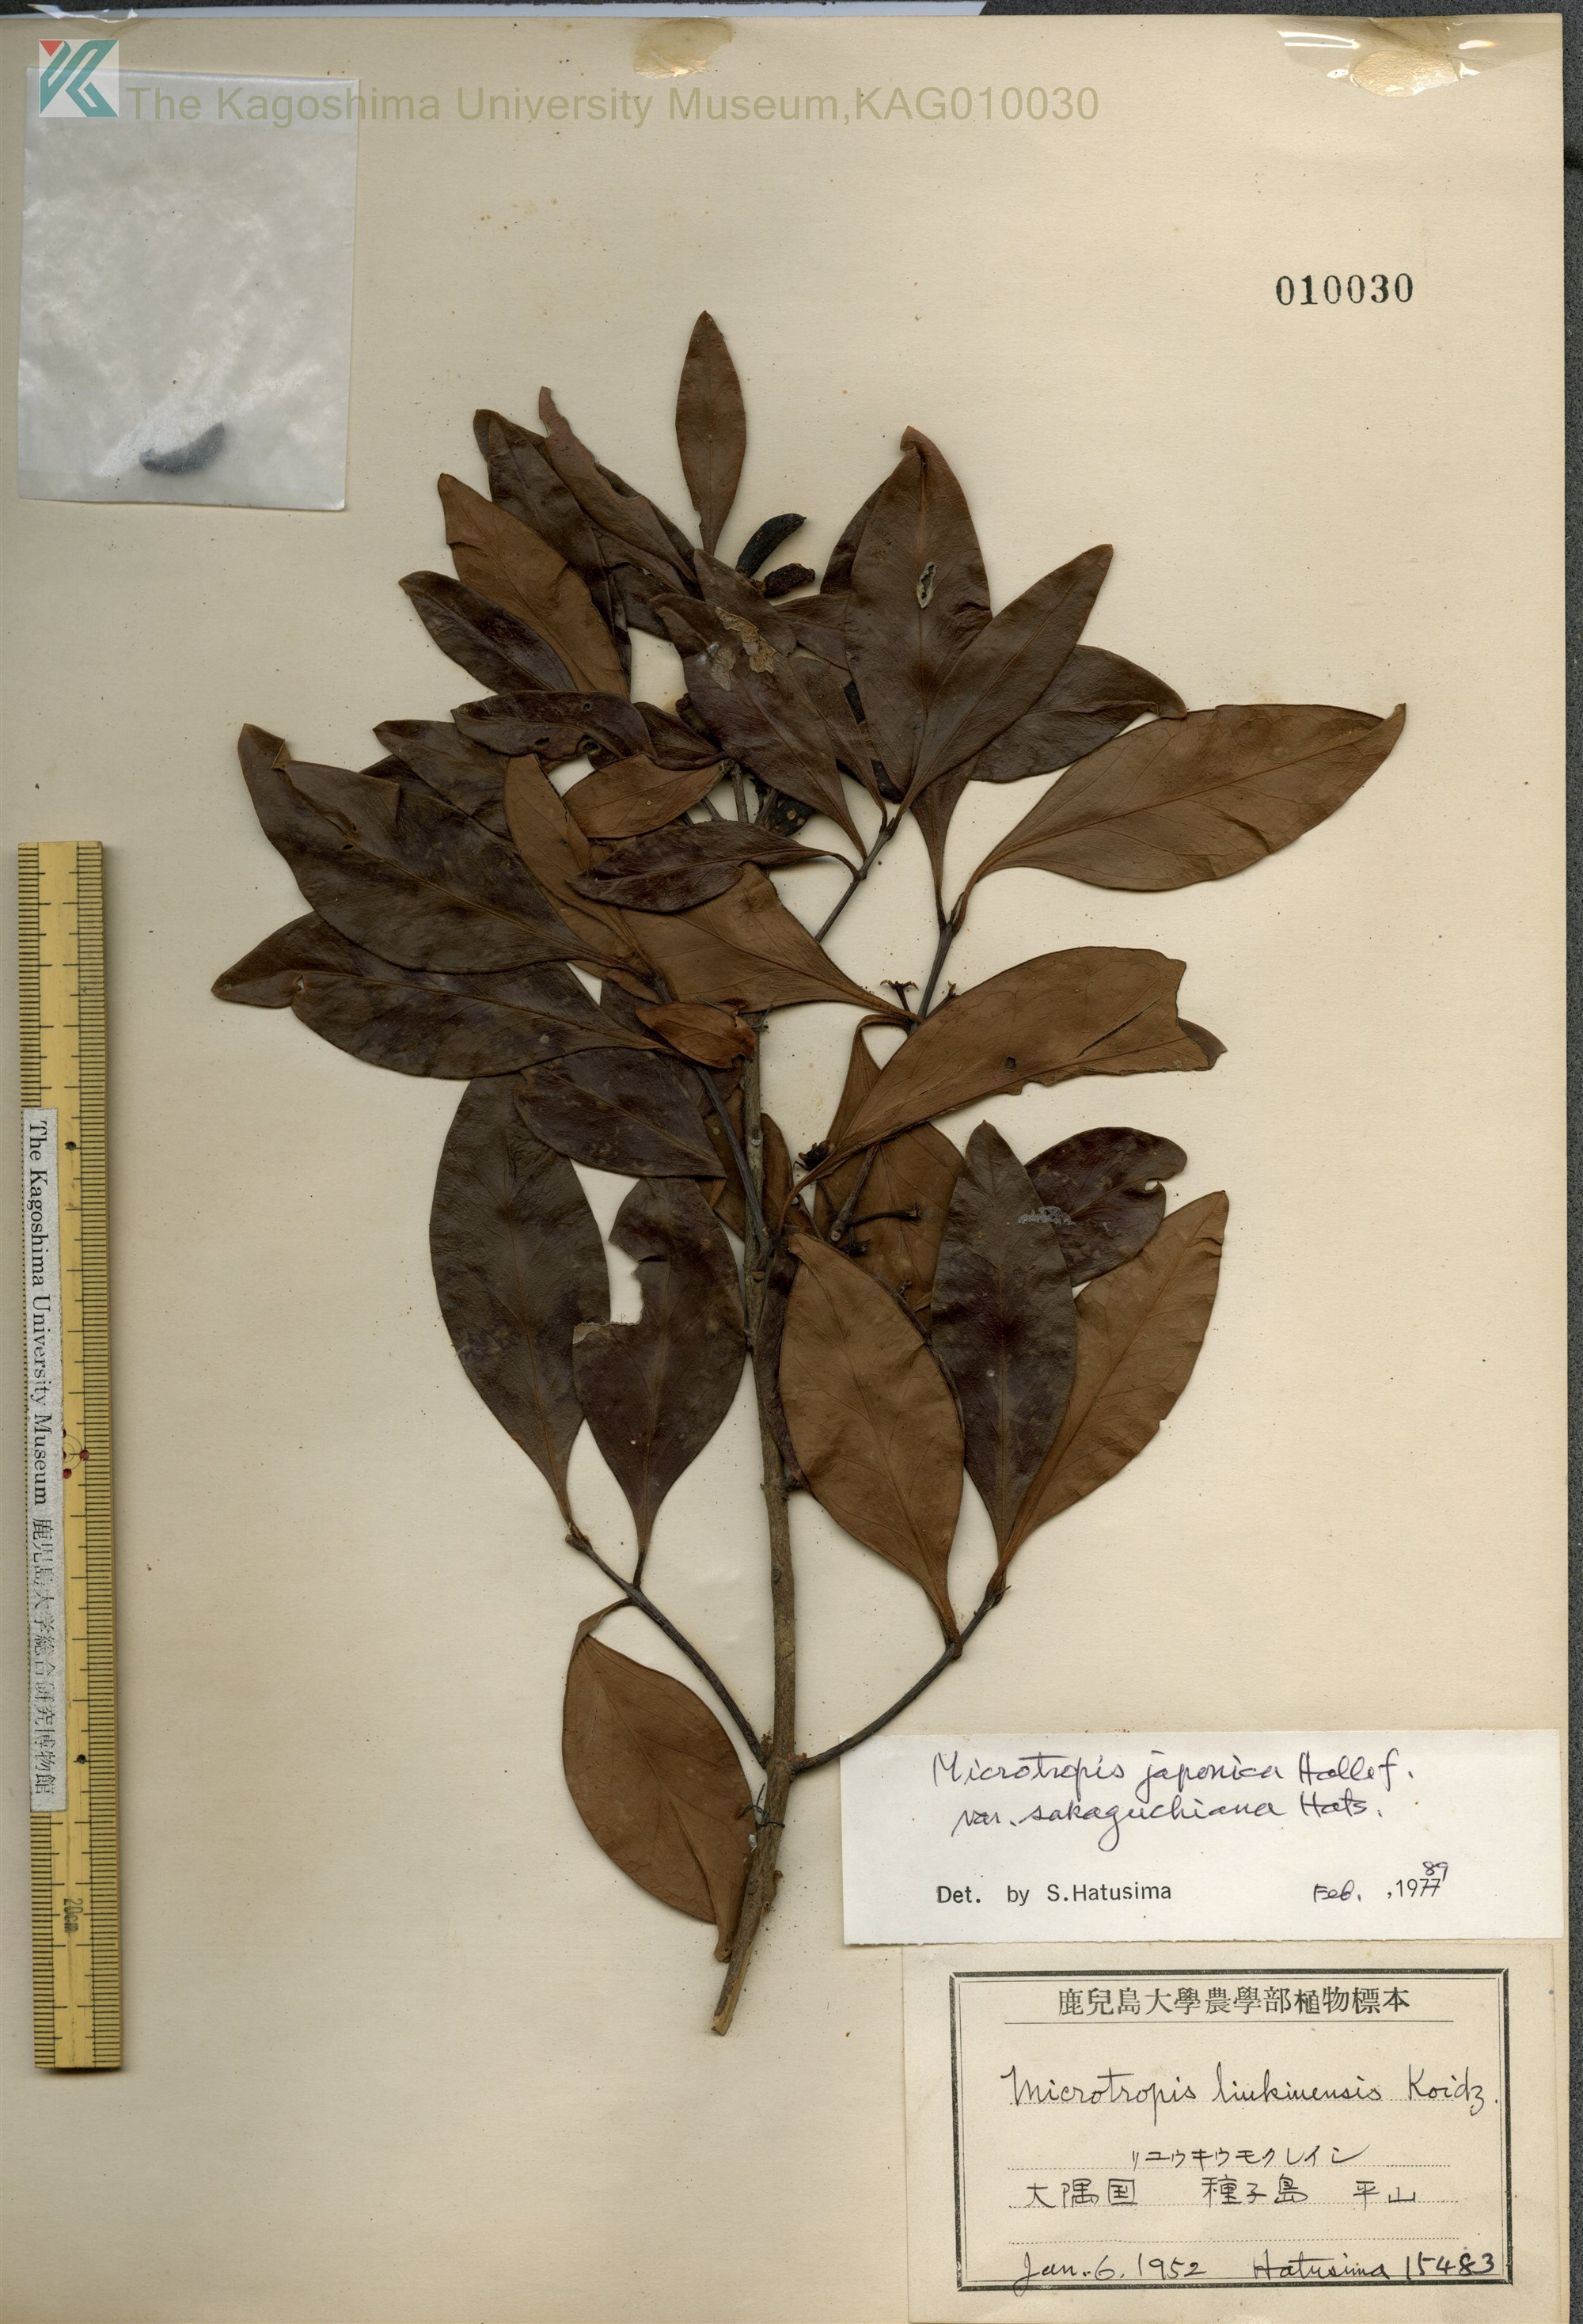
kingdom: Plantae
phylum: Tracheophyta
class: Magnoliopsida
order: Celastrales
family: Celastraceae
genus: Microtropis
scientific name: Microtropis japonica
